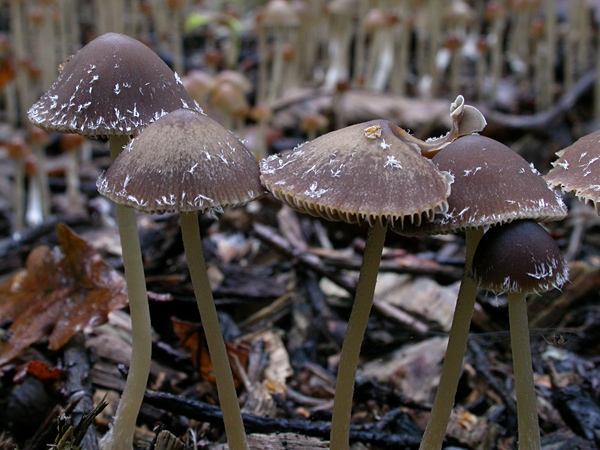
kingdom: Fungi
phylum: Basidiomycota
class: Agaricomycetes
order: Agaricales
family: Psathyrellaceae
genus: Psathyrella
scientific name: Psathyrella microrhiza
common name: rod-mørkhat
